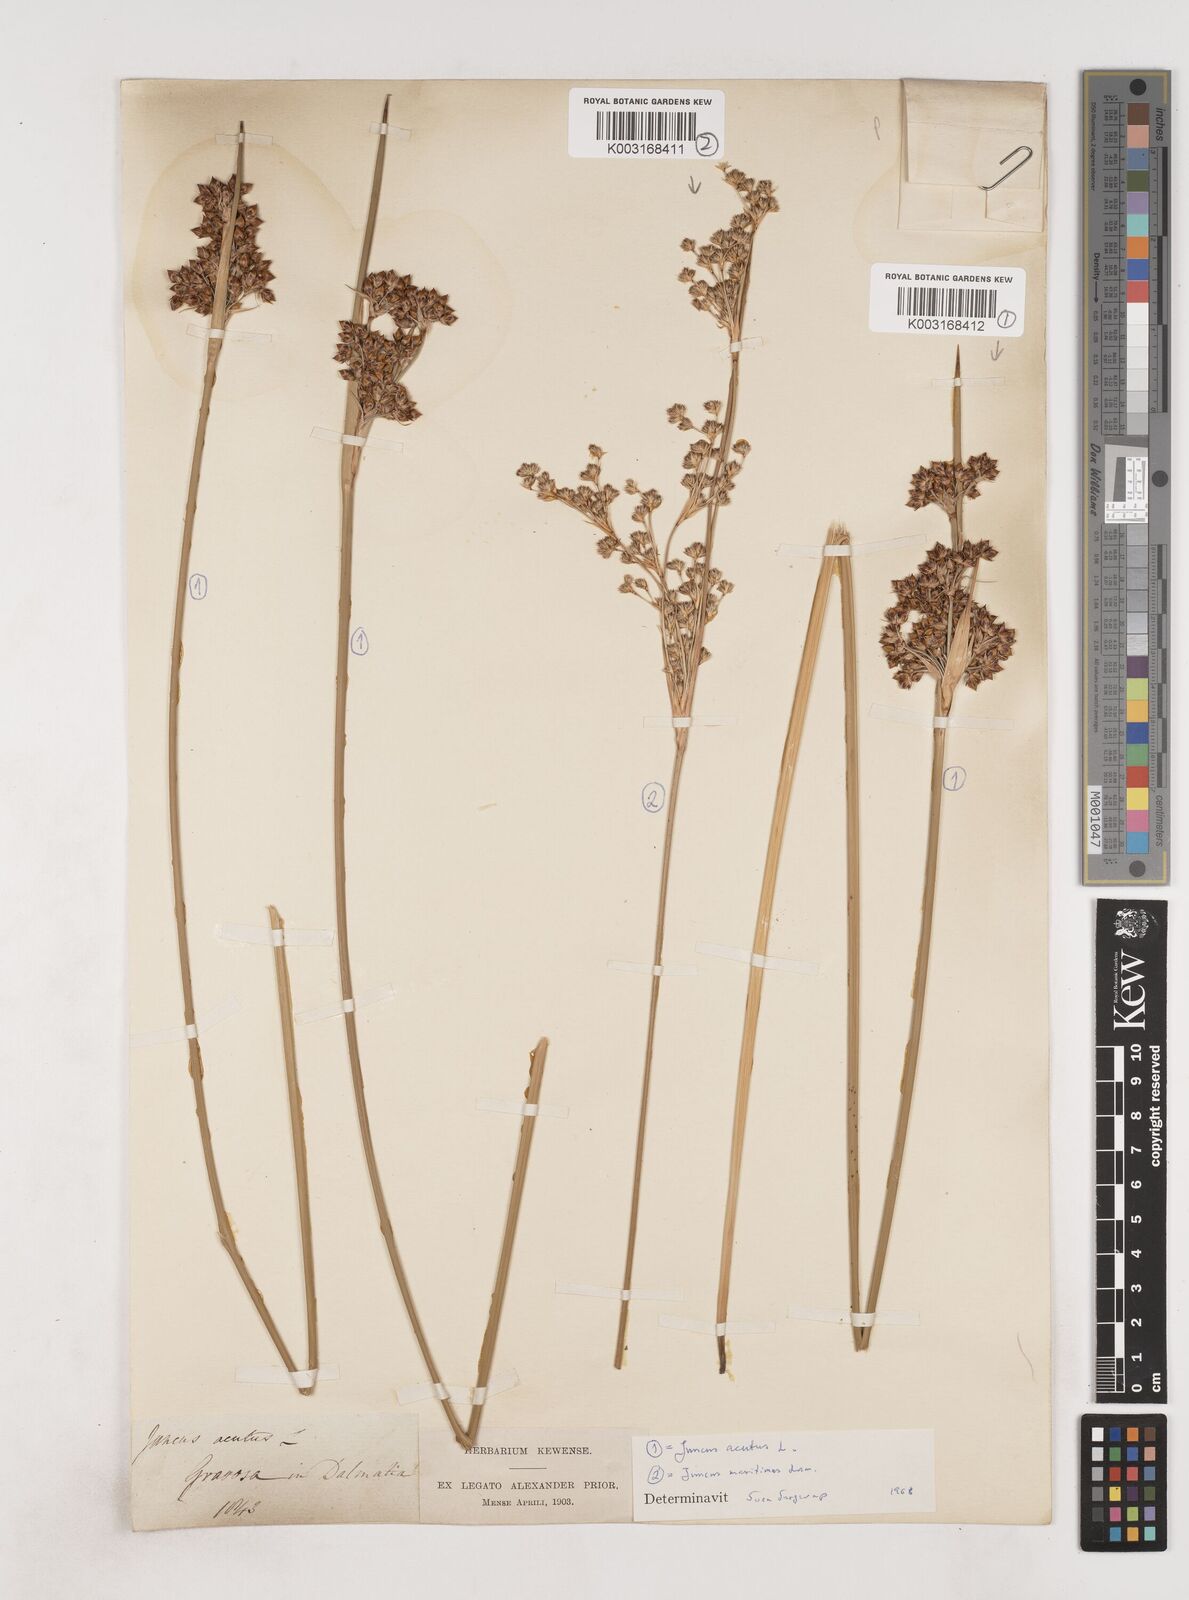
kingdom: Plantae
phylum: Tracheophyta
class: Liliopsida
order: Poales
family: Juncaceae
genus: Juncus
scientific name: Juncus acutus
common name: Sharp rush
